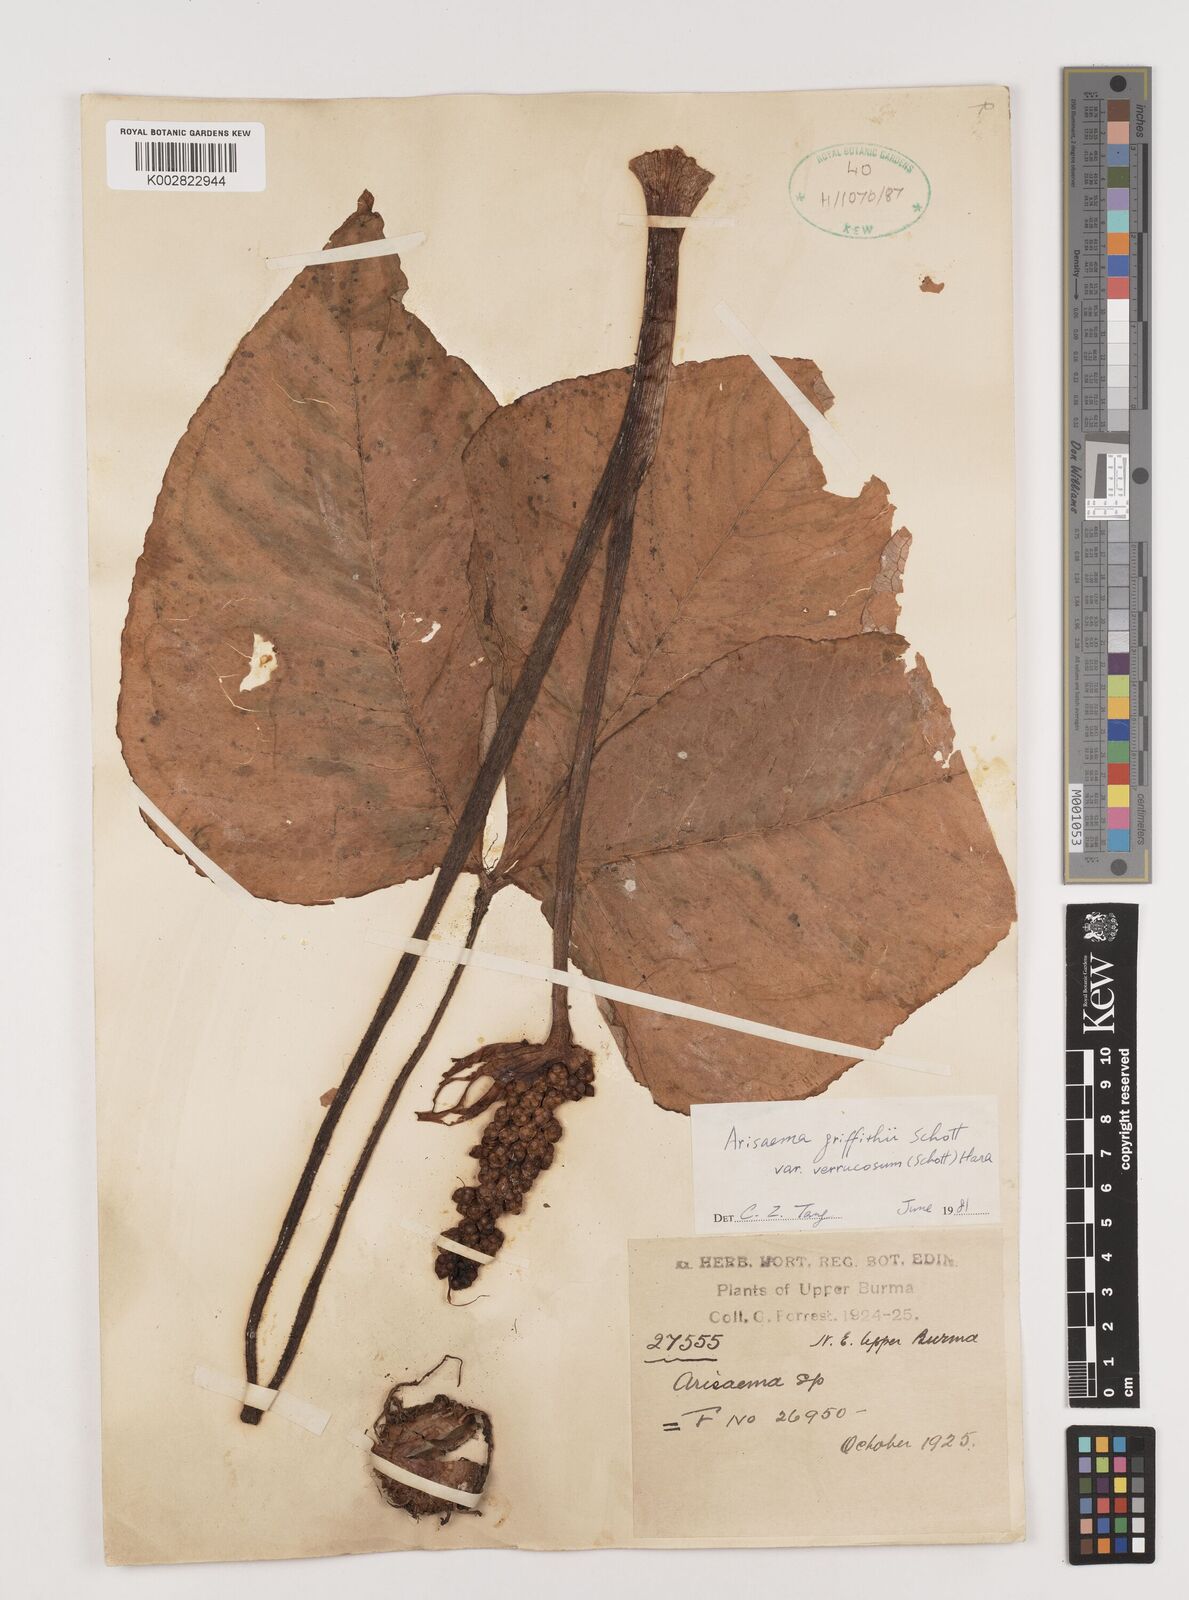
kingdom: Plantae
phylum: Tracheophyta
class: Liliopsida
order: Alismatales
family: Araceae
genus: Arisaema
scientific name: Arisaema griffithii
